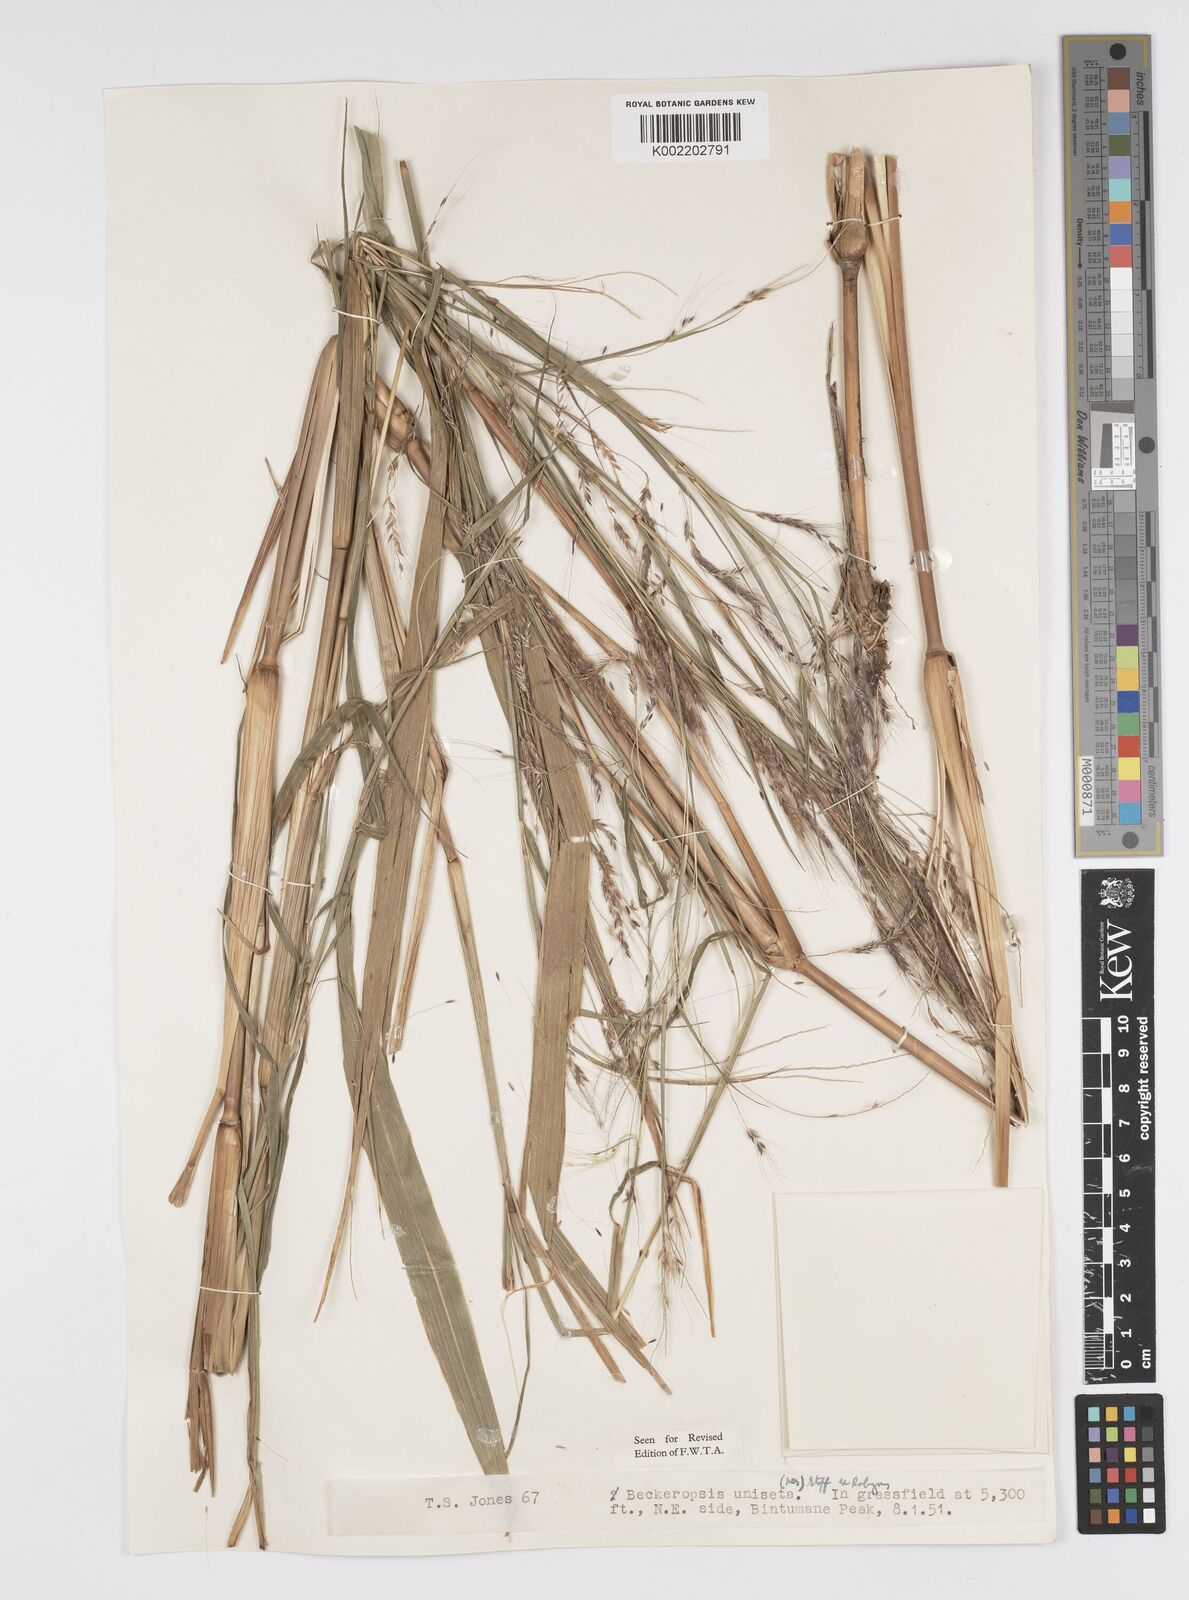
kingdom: Plantae
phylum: Tracheophyta
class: Liliopsida
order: Poales
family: Poaceae
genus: Cenchrus
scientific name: Cenchrus unisetus
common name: Natal grass
